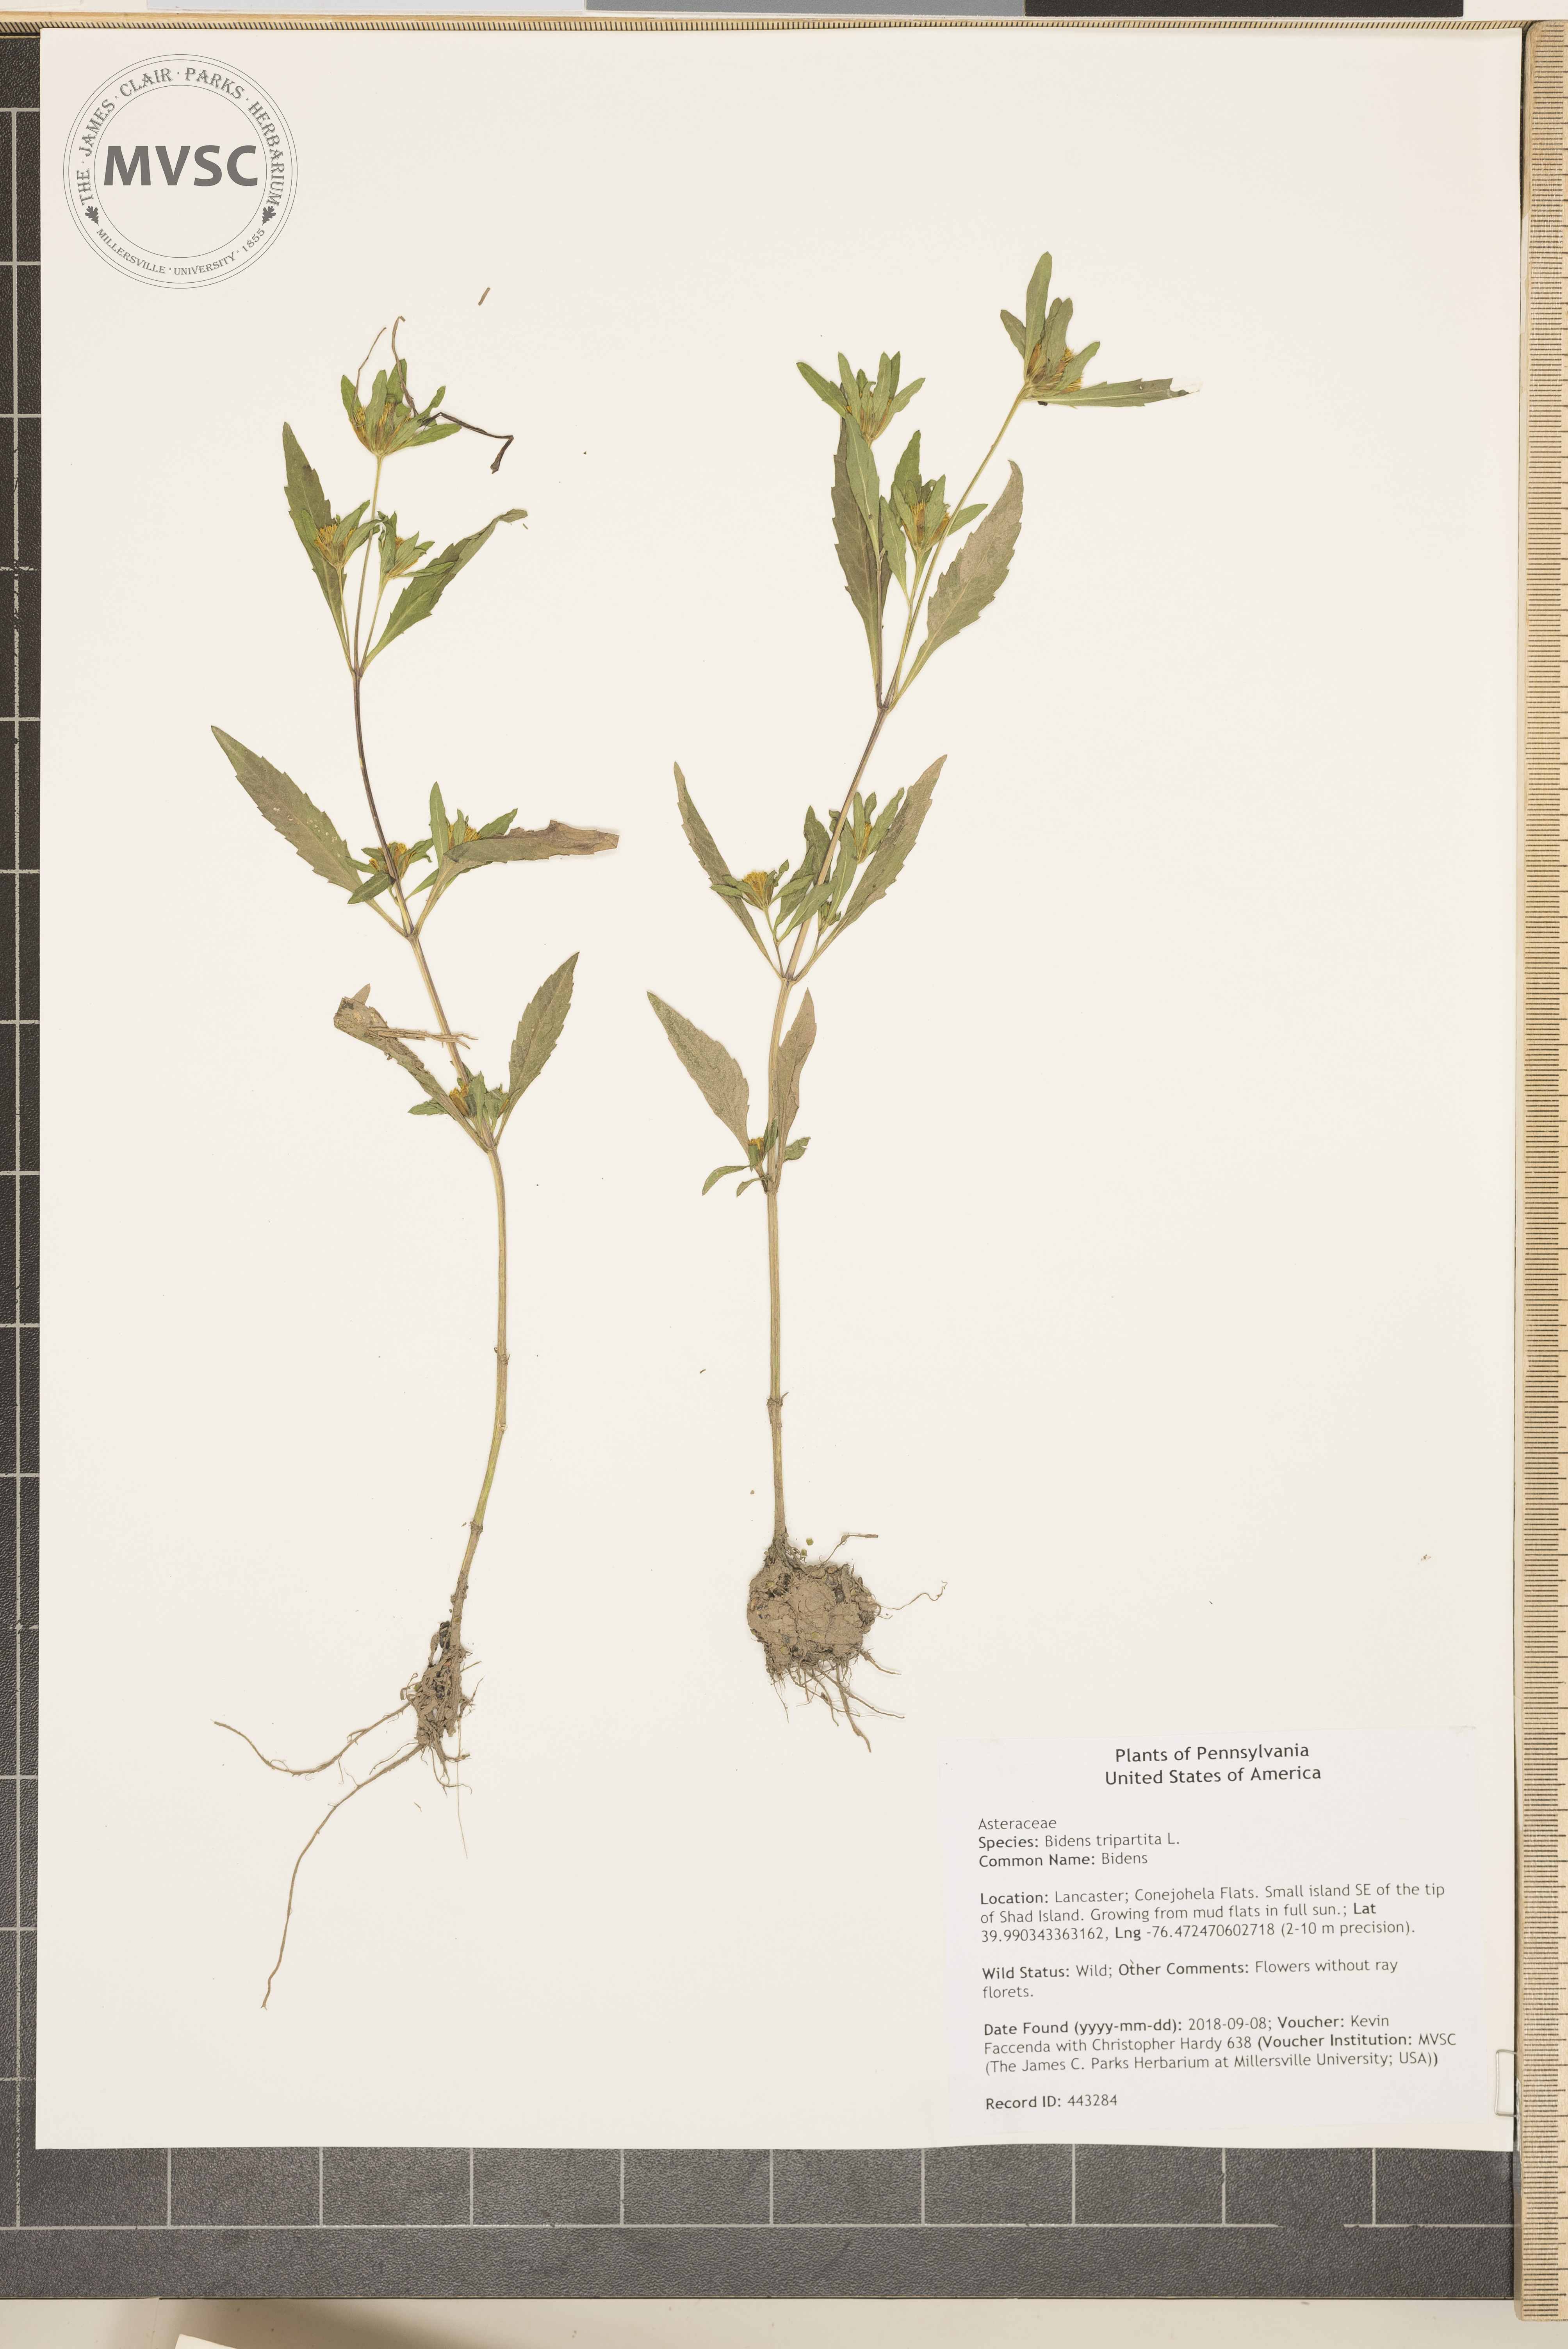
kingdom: Plantae
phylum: Tracheophyta
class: Magnoliopsida
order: Asterales
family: Asteraceae
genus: Bidens
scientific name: Bidens tripartita
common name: Bidens
